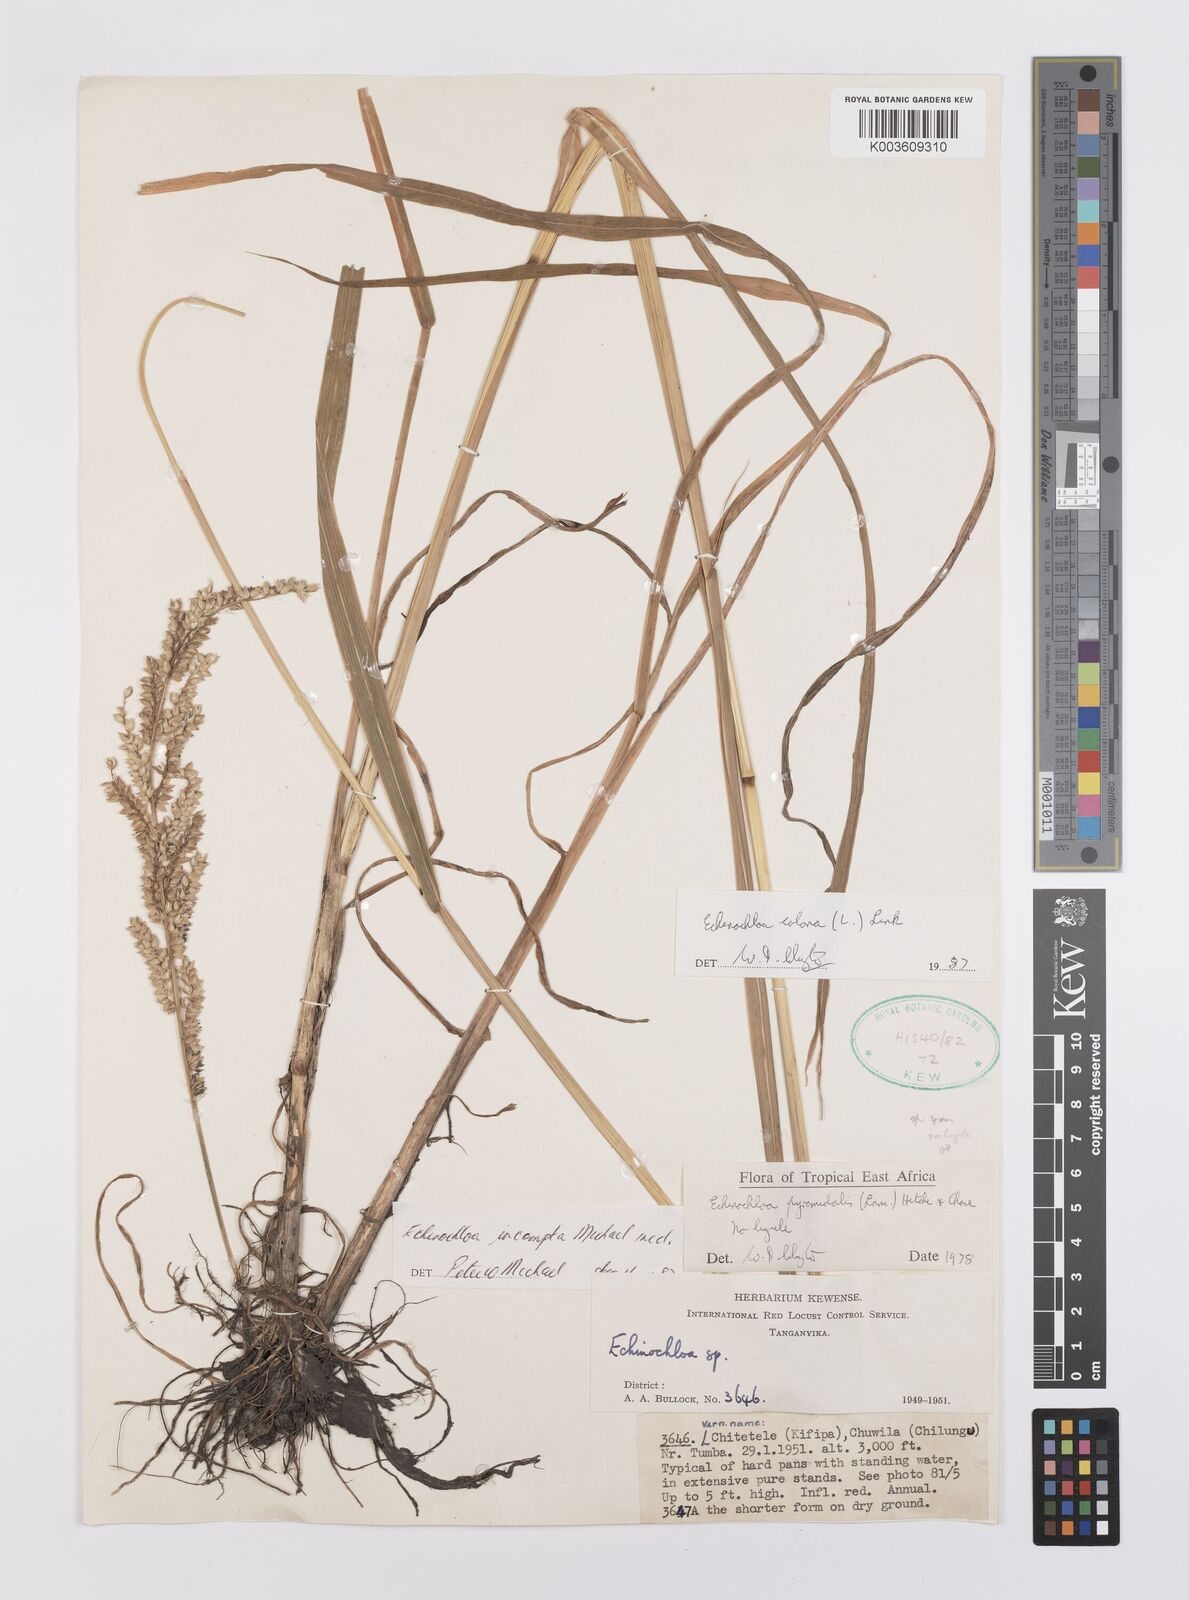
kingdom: Plantae
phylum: Tracheophyta
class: Liliopsida
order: Poales
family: Poaceae
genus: Echinochloa
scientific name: Echinochloa colonum
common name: Jungle rice
